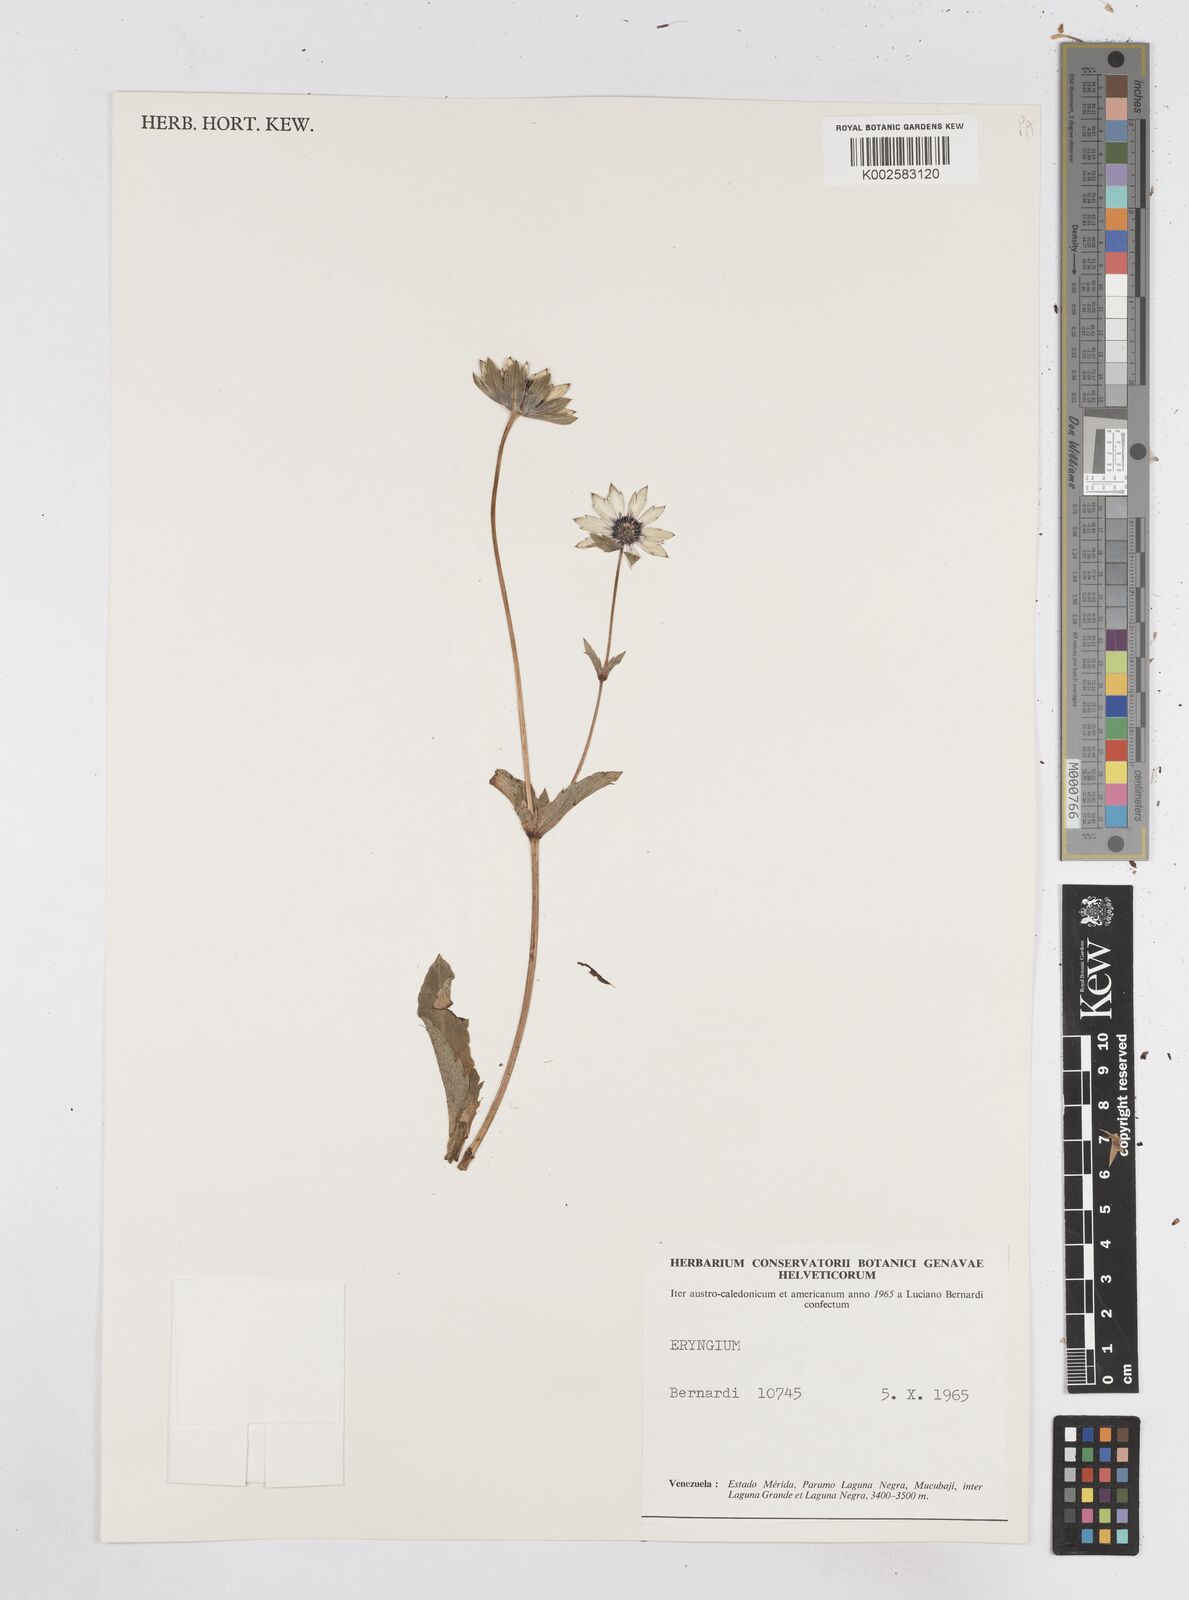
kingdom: Plantae
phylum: Tracheophyta
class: Magnoliopsida
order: Apiales
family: Apiaceae
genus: Eryngium
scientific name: Eryngium foetidum
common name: Fitweed
